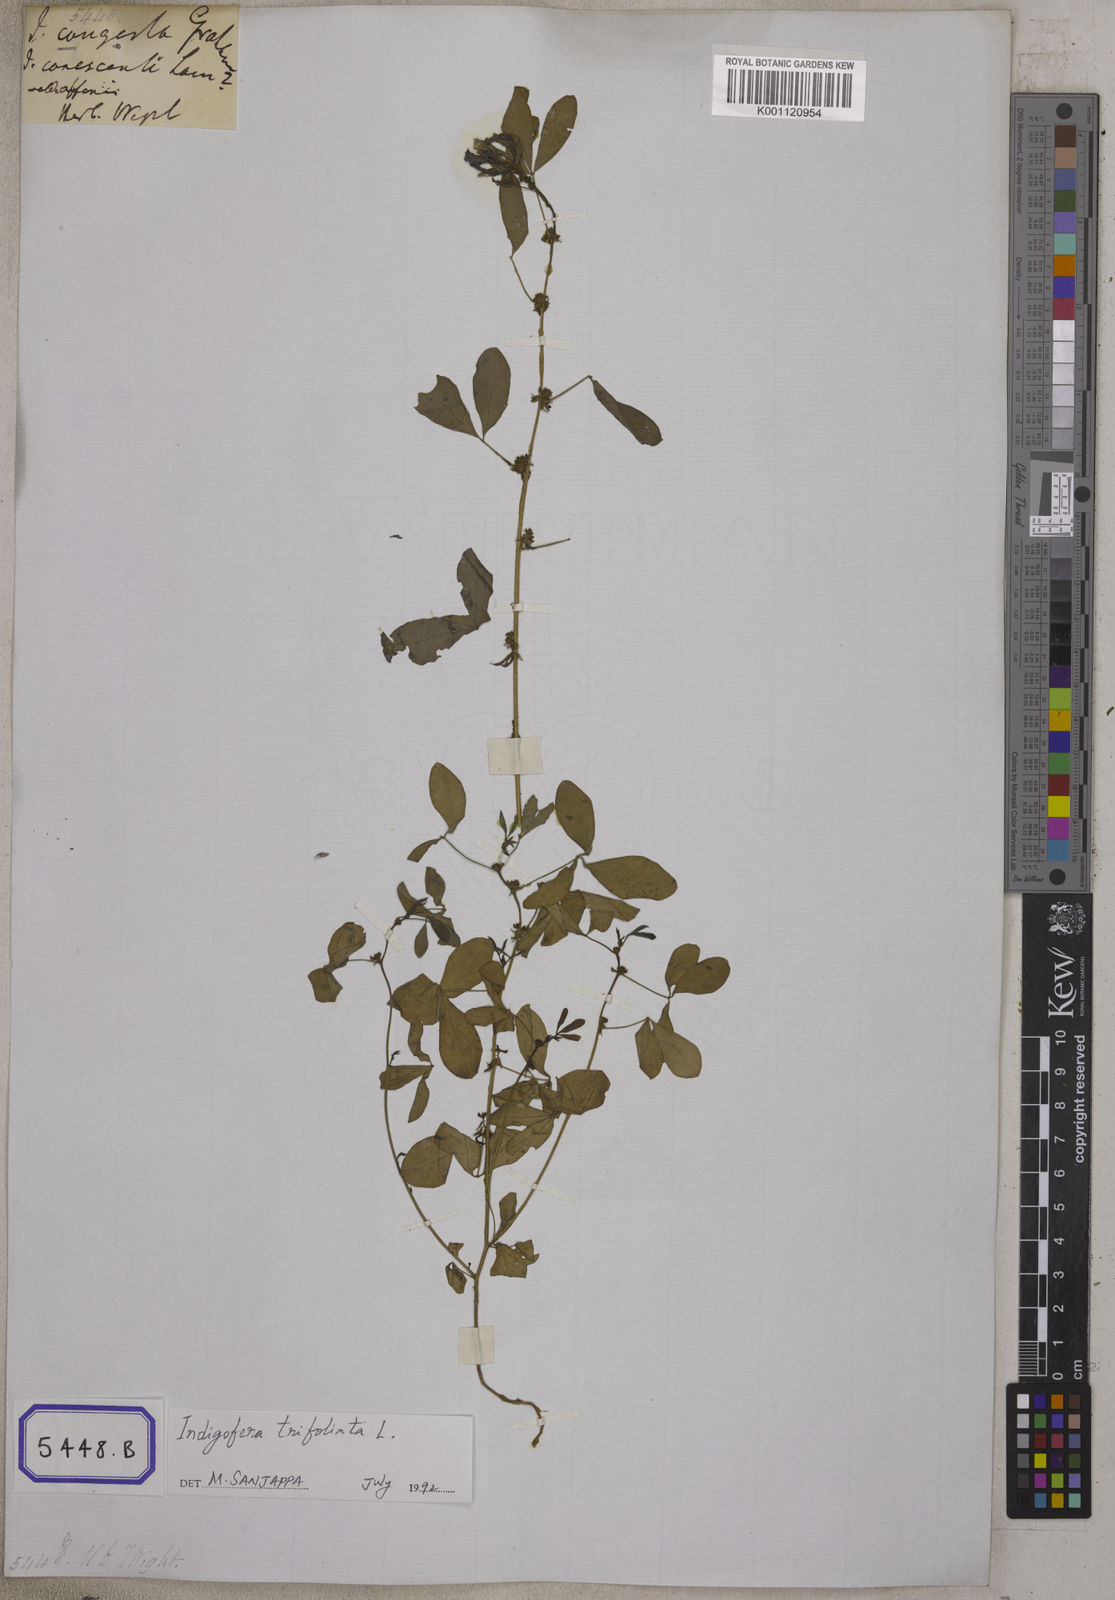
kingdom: Plantae
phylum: Tracheophyta
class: Magnoliopsida
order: Fabales
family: Fabaceae
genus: Indigofera
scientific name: Indigofera trita
